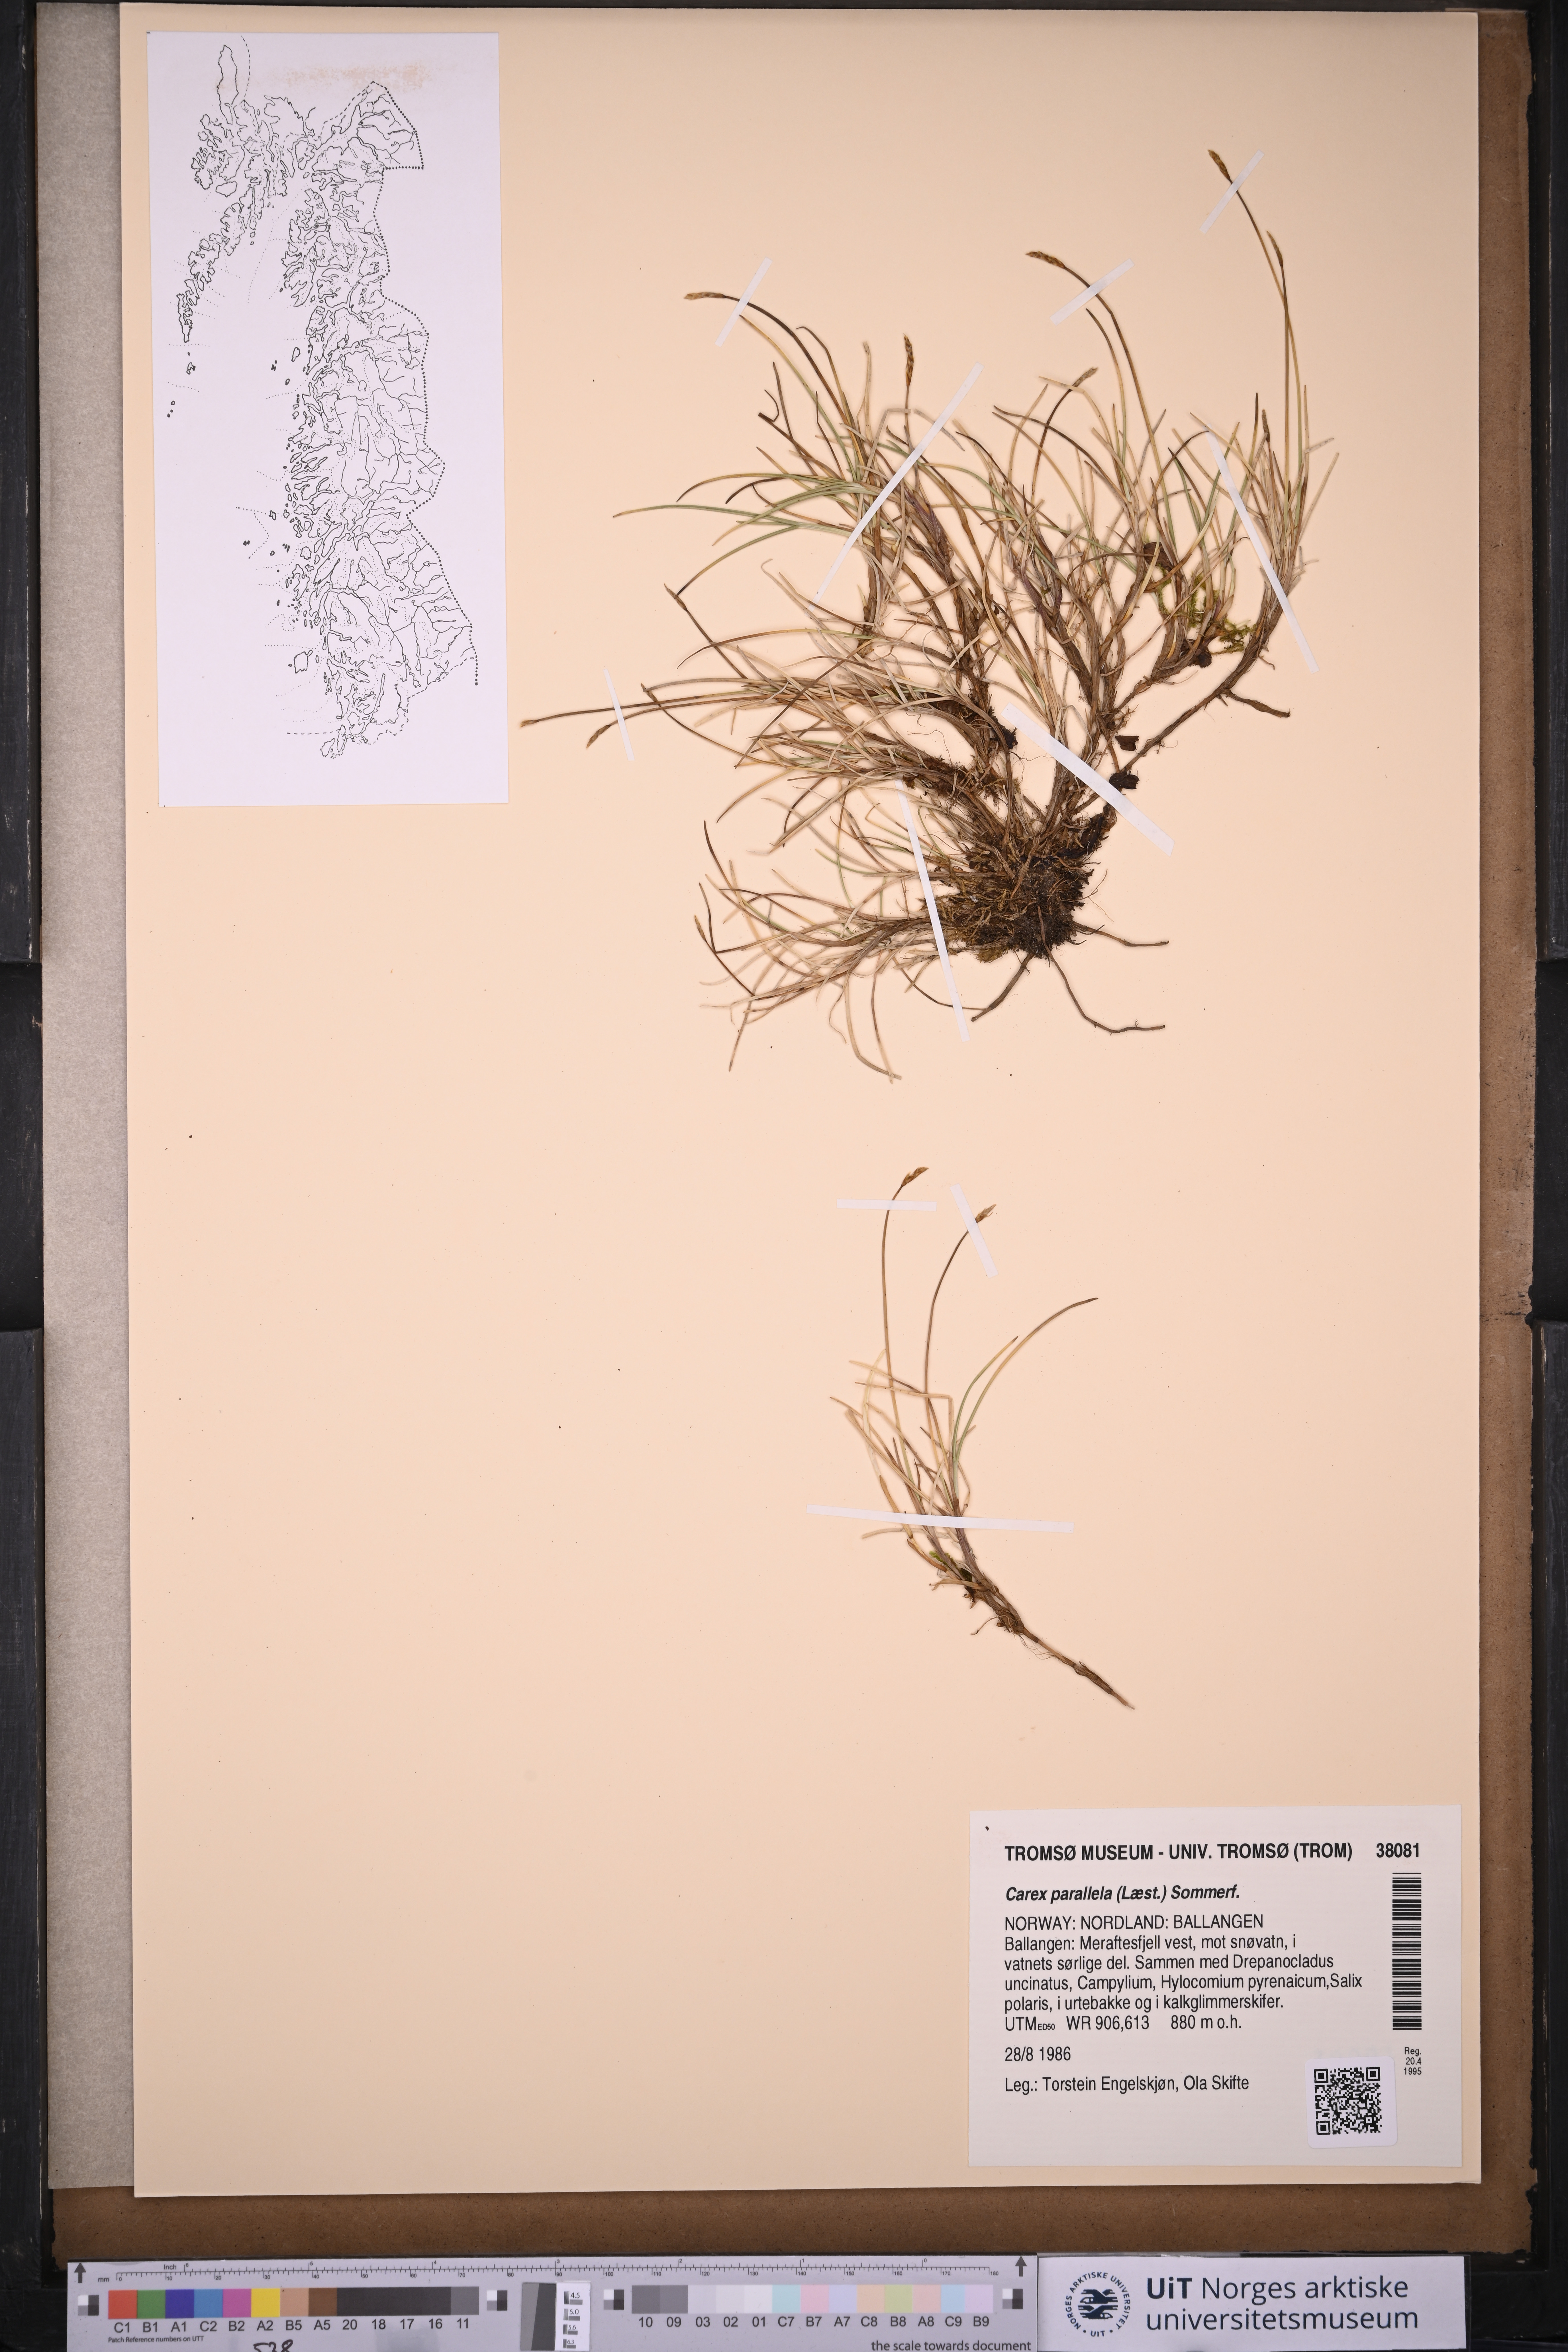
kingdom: Plantae
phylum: Tracheophyta
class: Liliopsida
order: Poales
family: Cyperaceae
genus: Carex
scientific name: Carex parallela
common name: Parallel sedge
